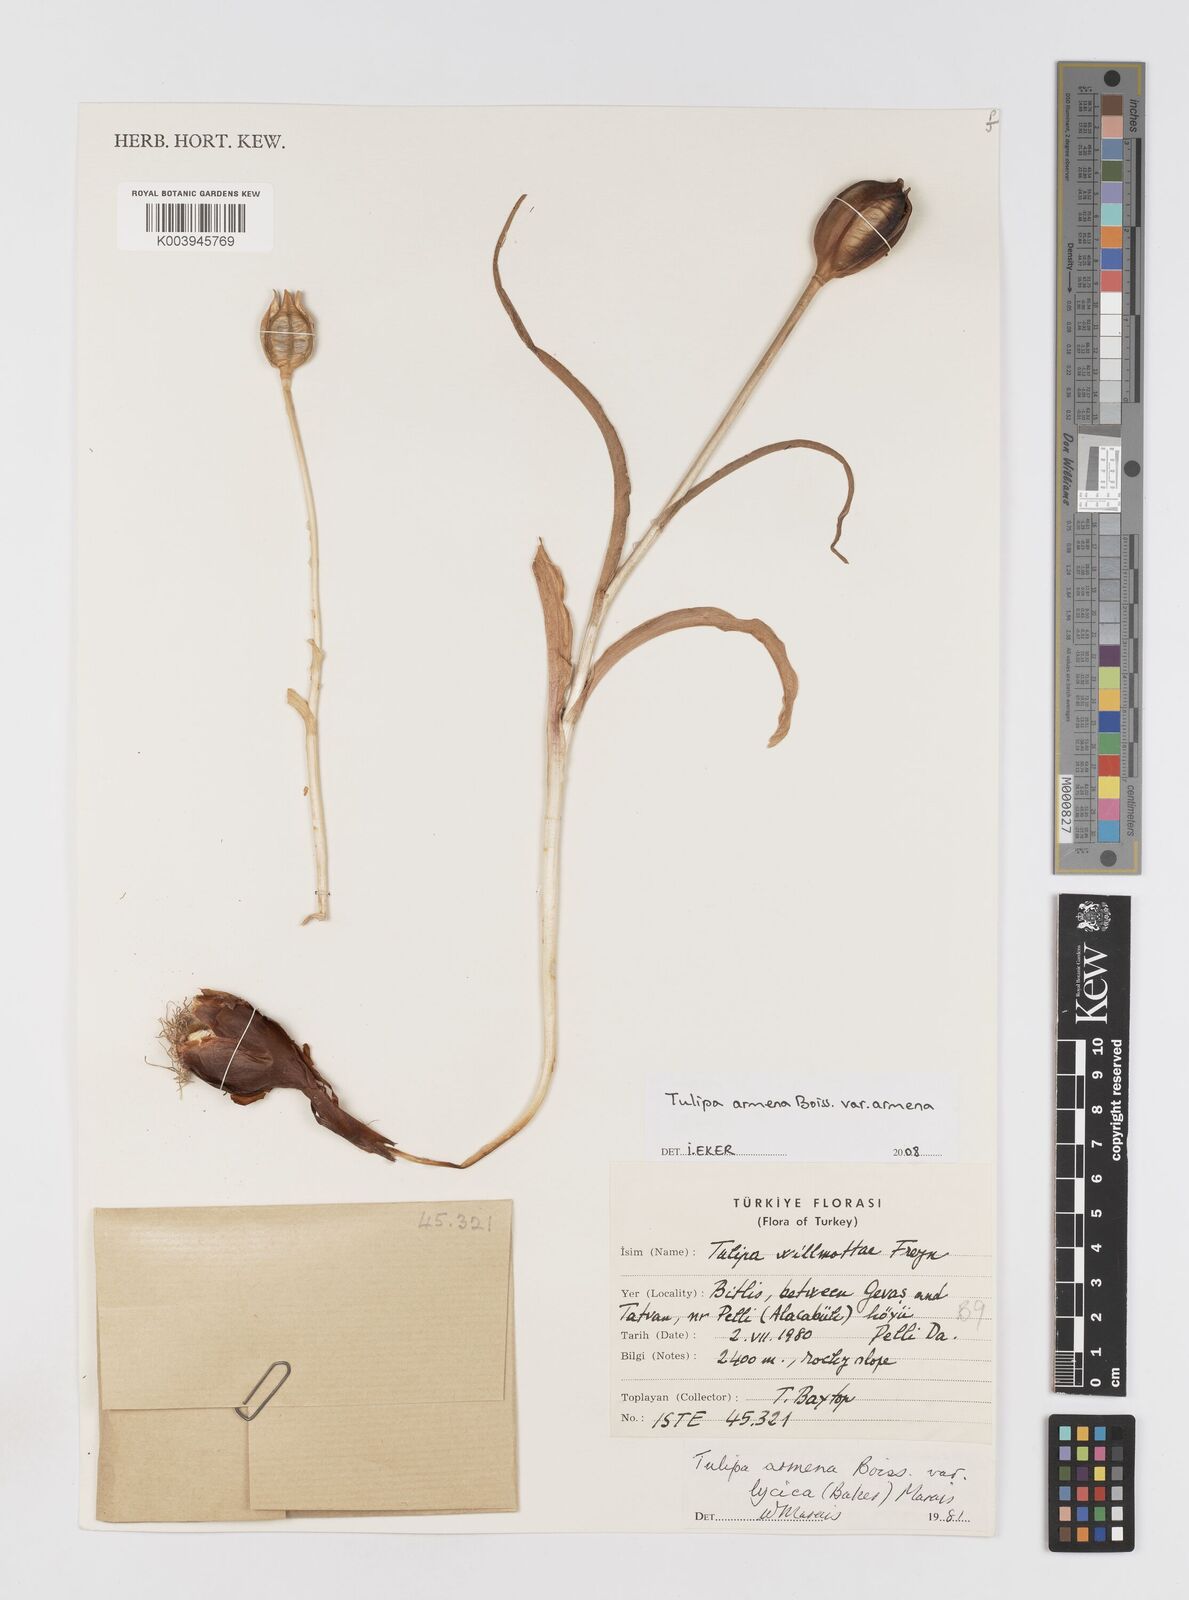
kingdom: Plantae
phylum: Tracheophyta
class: Liliopsida
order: Liliales
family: Liliaceae
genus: Tulipa
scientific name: Tulipa foliosa
